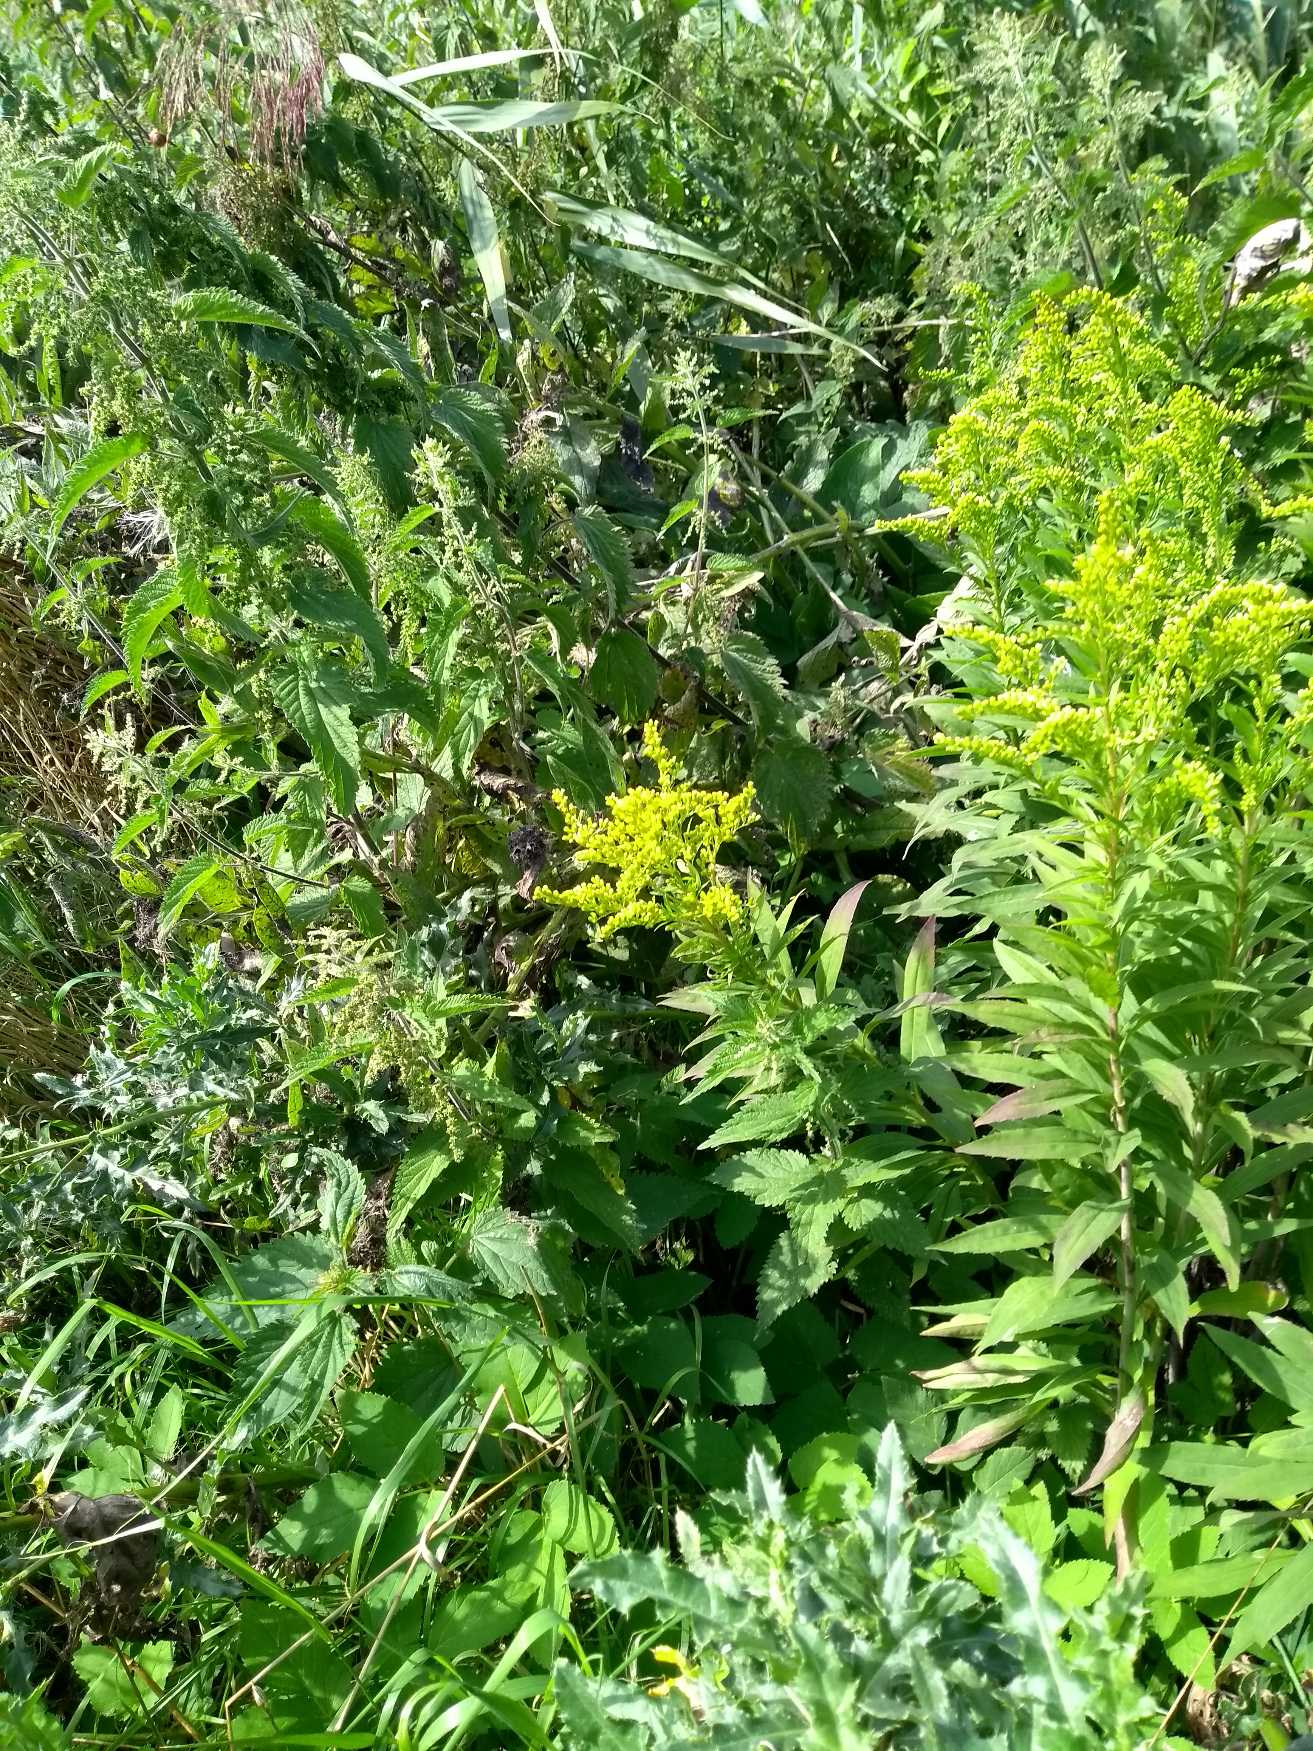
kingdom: Plantae
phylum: Tracheophyta
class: Magnoliopsida
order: Asterales
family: Asteraceae
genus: Solidago
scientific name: Solidago
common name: Gyldenrisslægten
